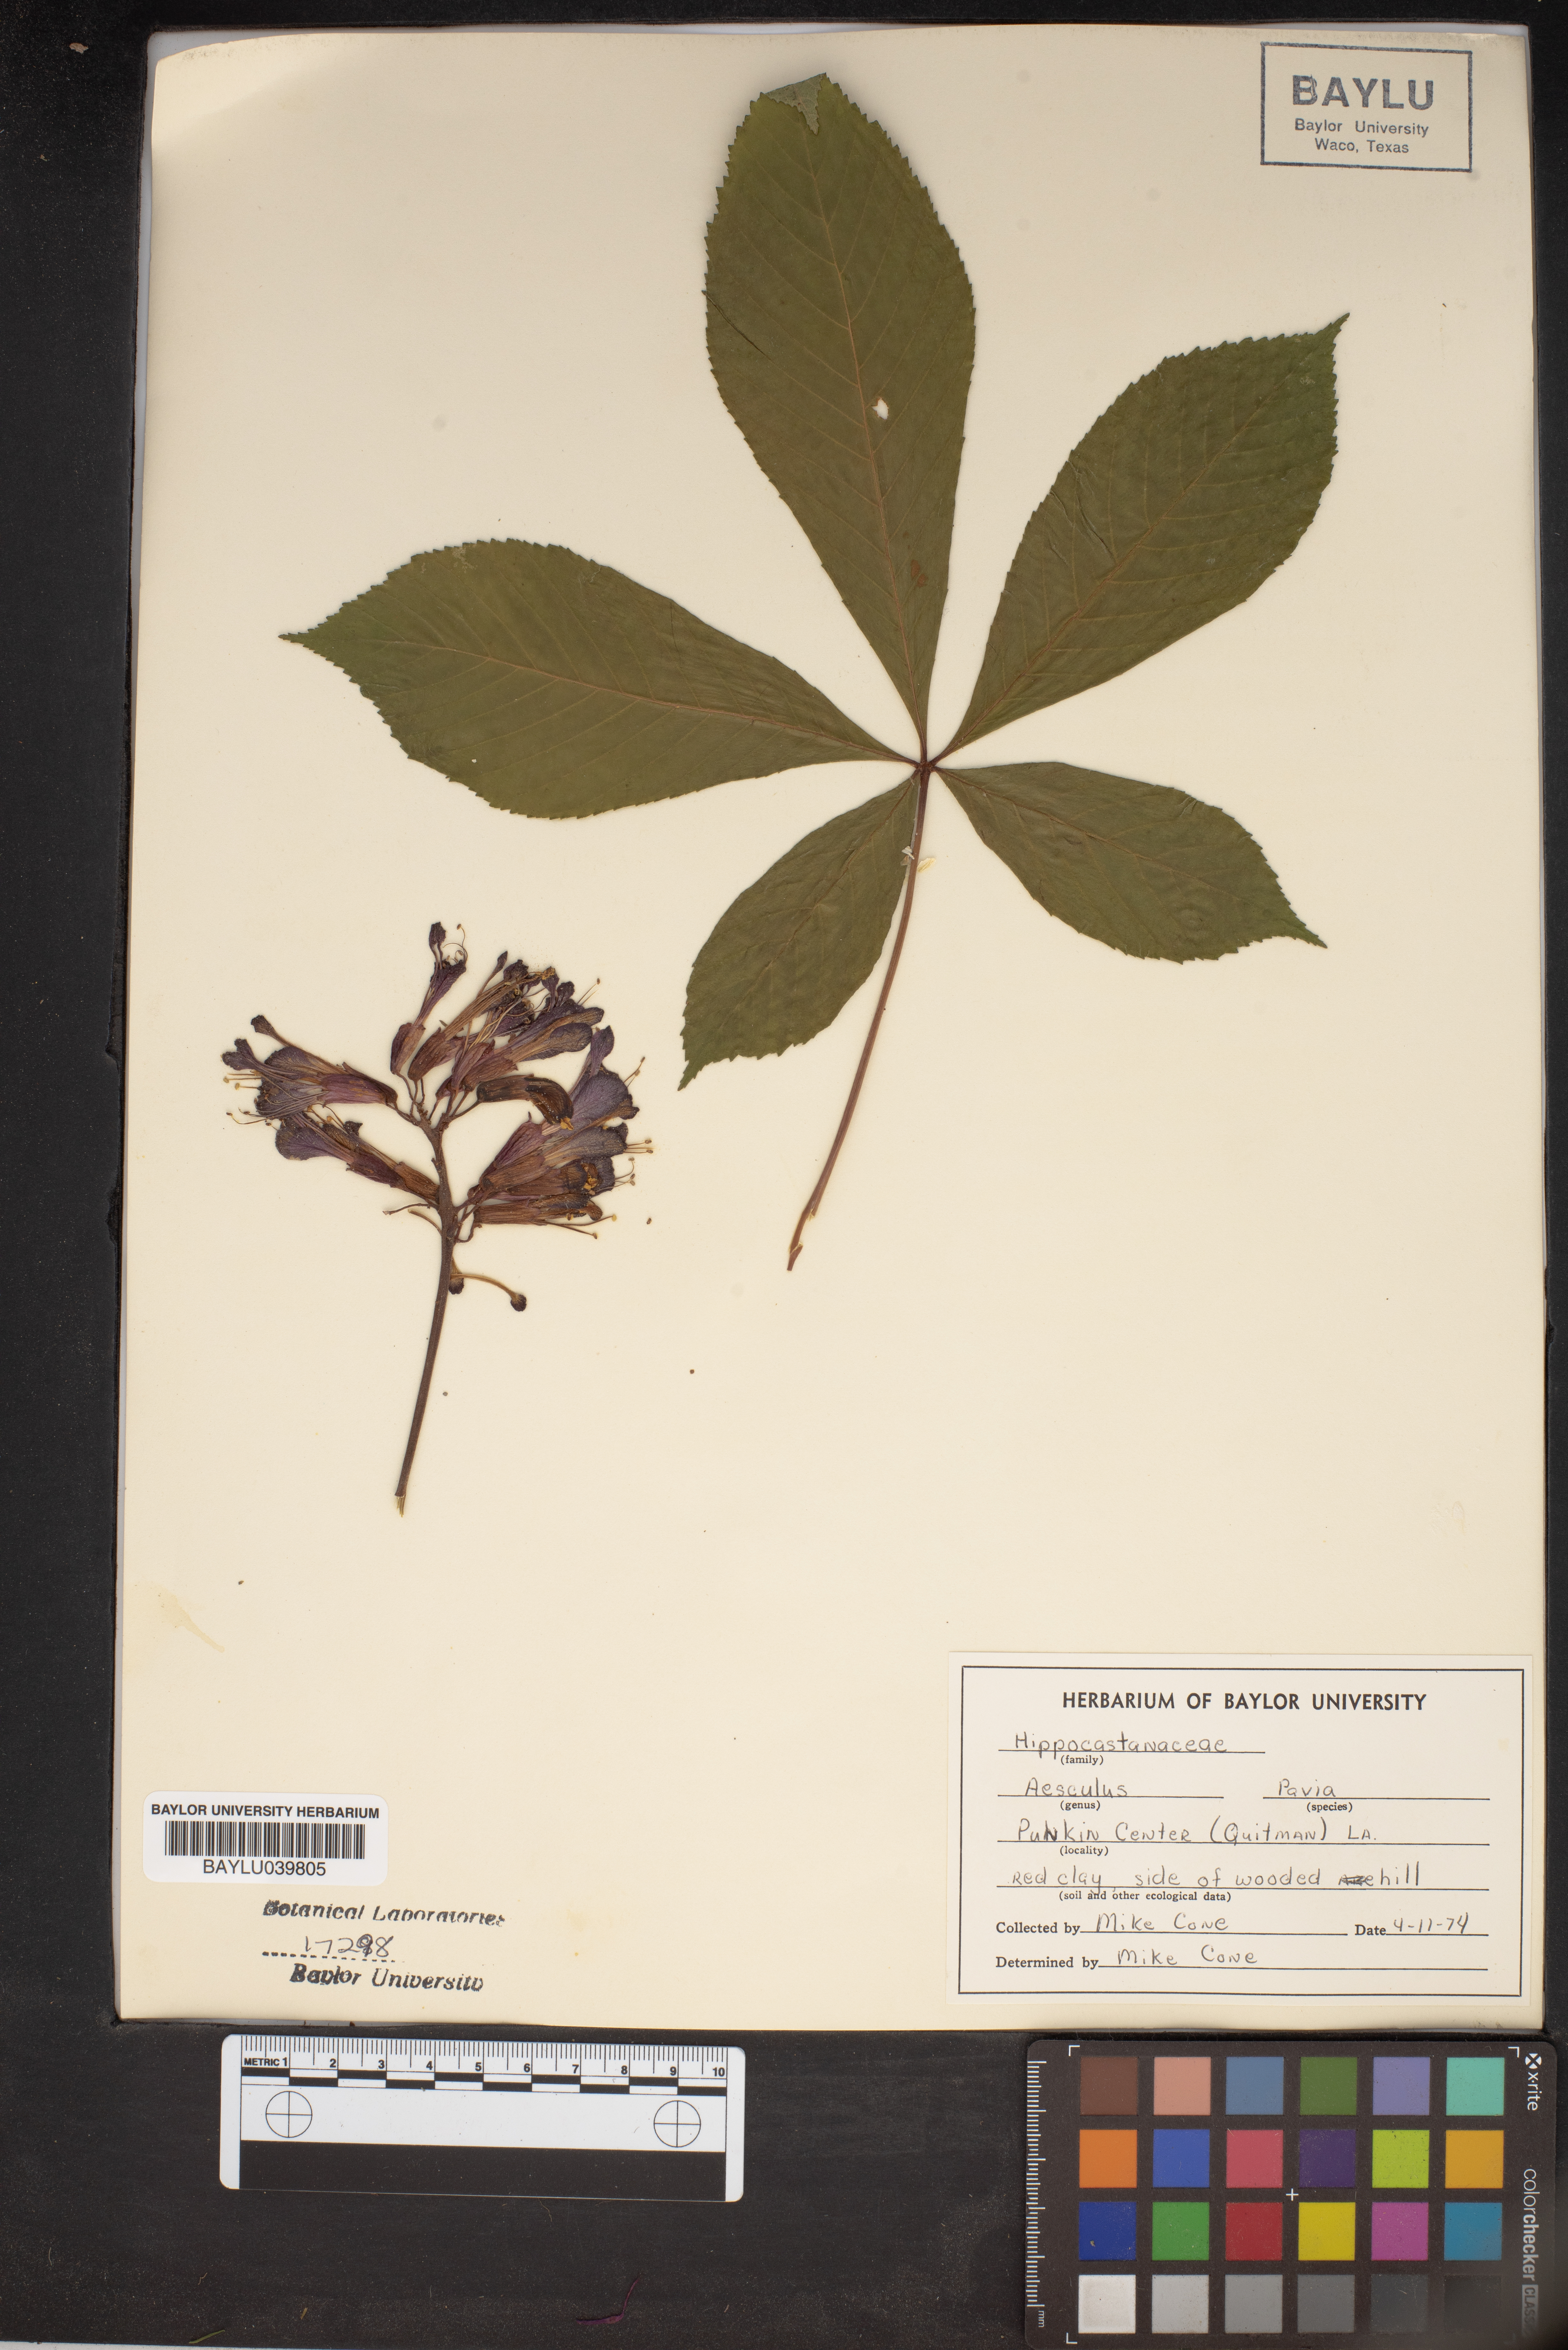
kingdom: Plantae
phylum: Tracheophyta
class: Magnoliopsida
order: Sapindales
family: Sapindaceae
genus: Aesculus
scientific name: Aesculus pavia
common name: Red buckeye
